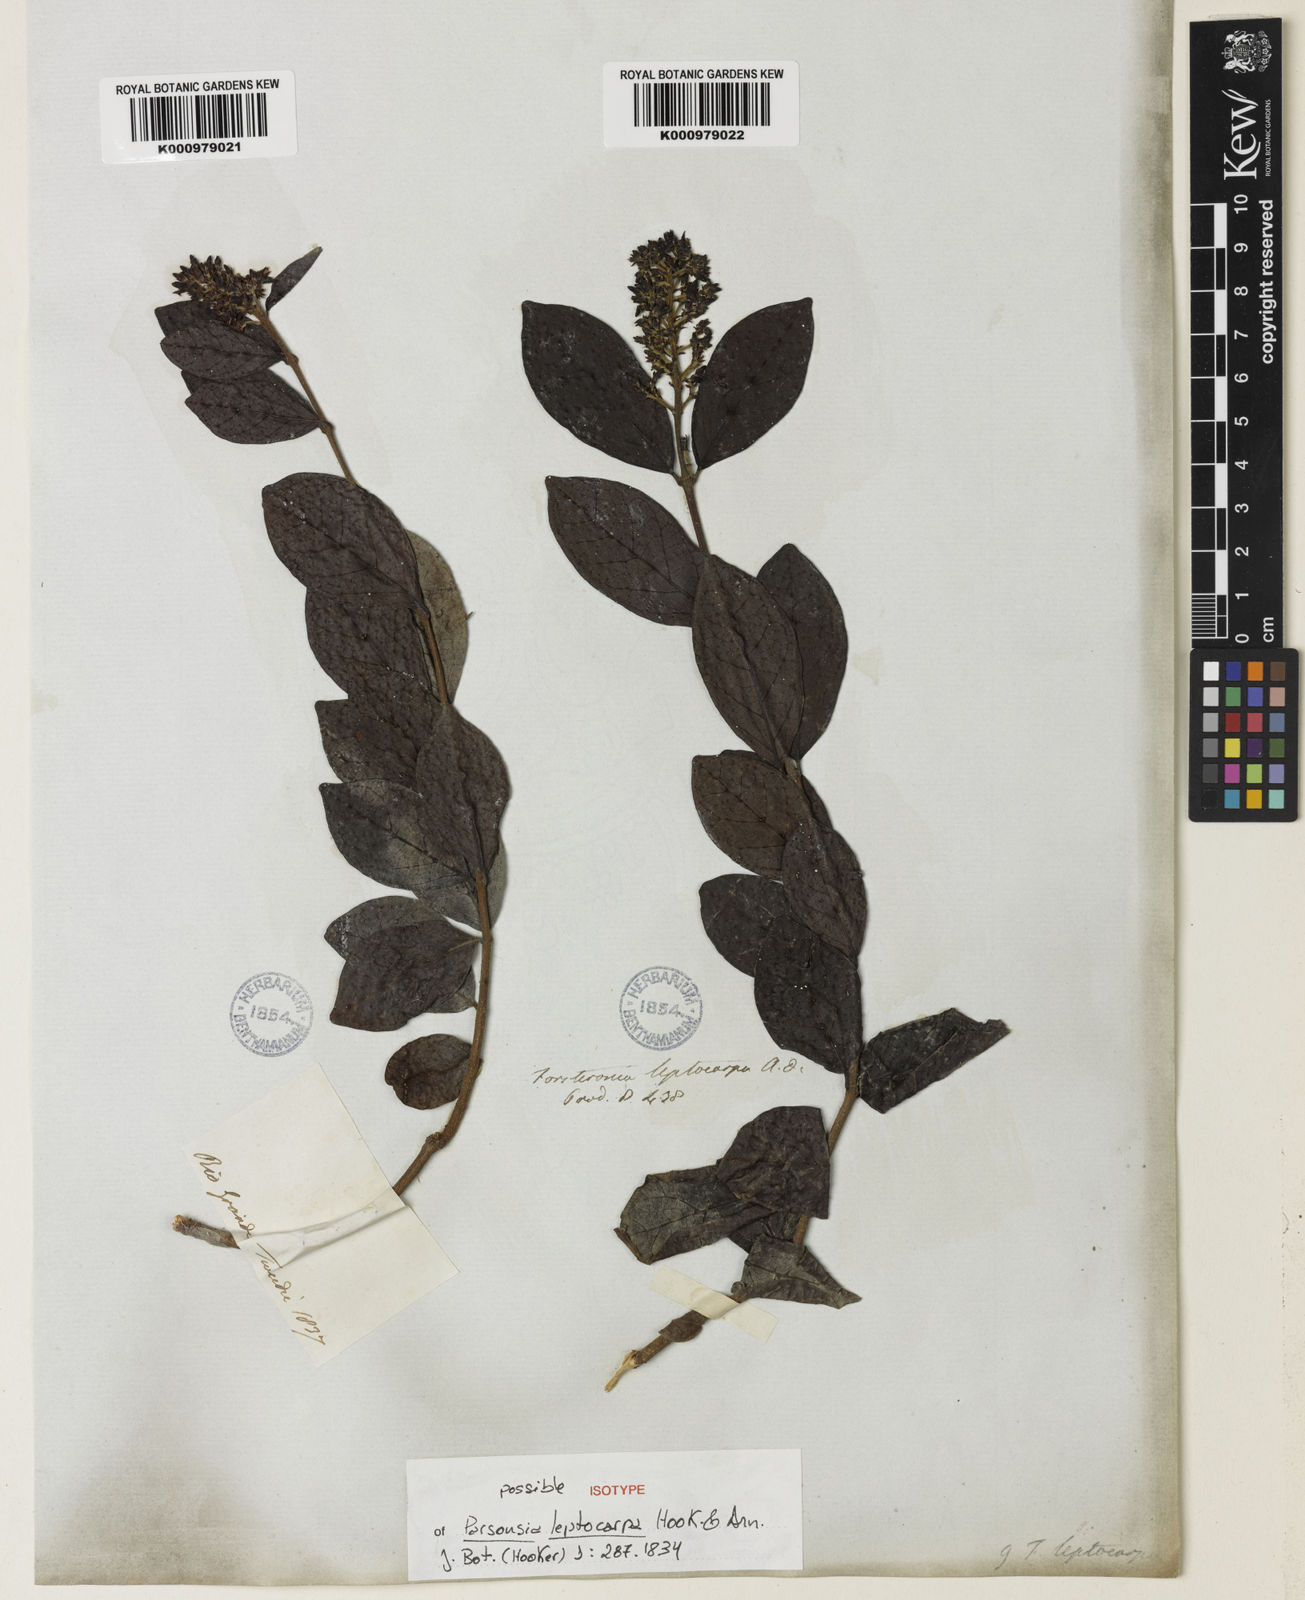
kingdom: Plantae
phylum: Tracheophyta
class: Magnoliopsida
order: Gentianales
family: Apocynaceae
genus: Forsteronia
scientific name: Forsteronia leptocarpa
